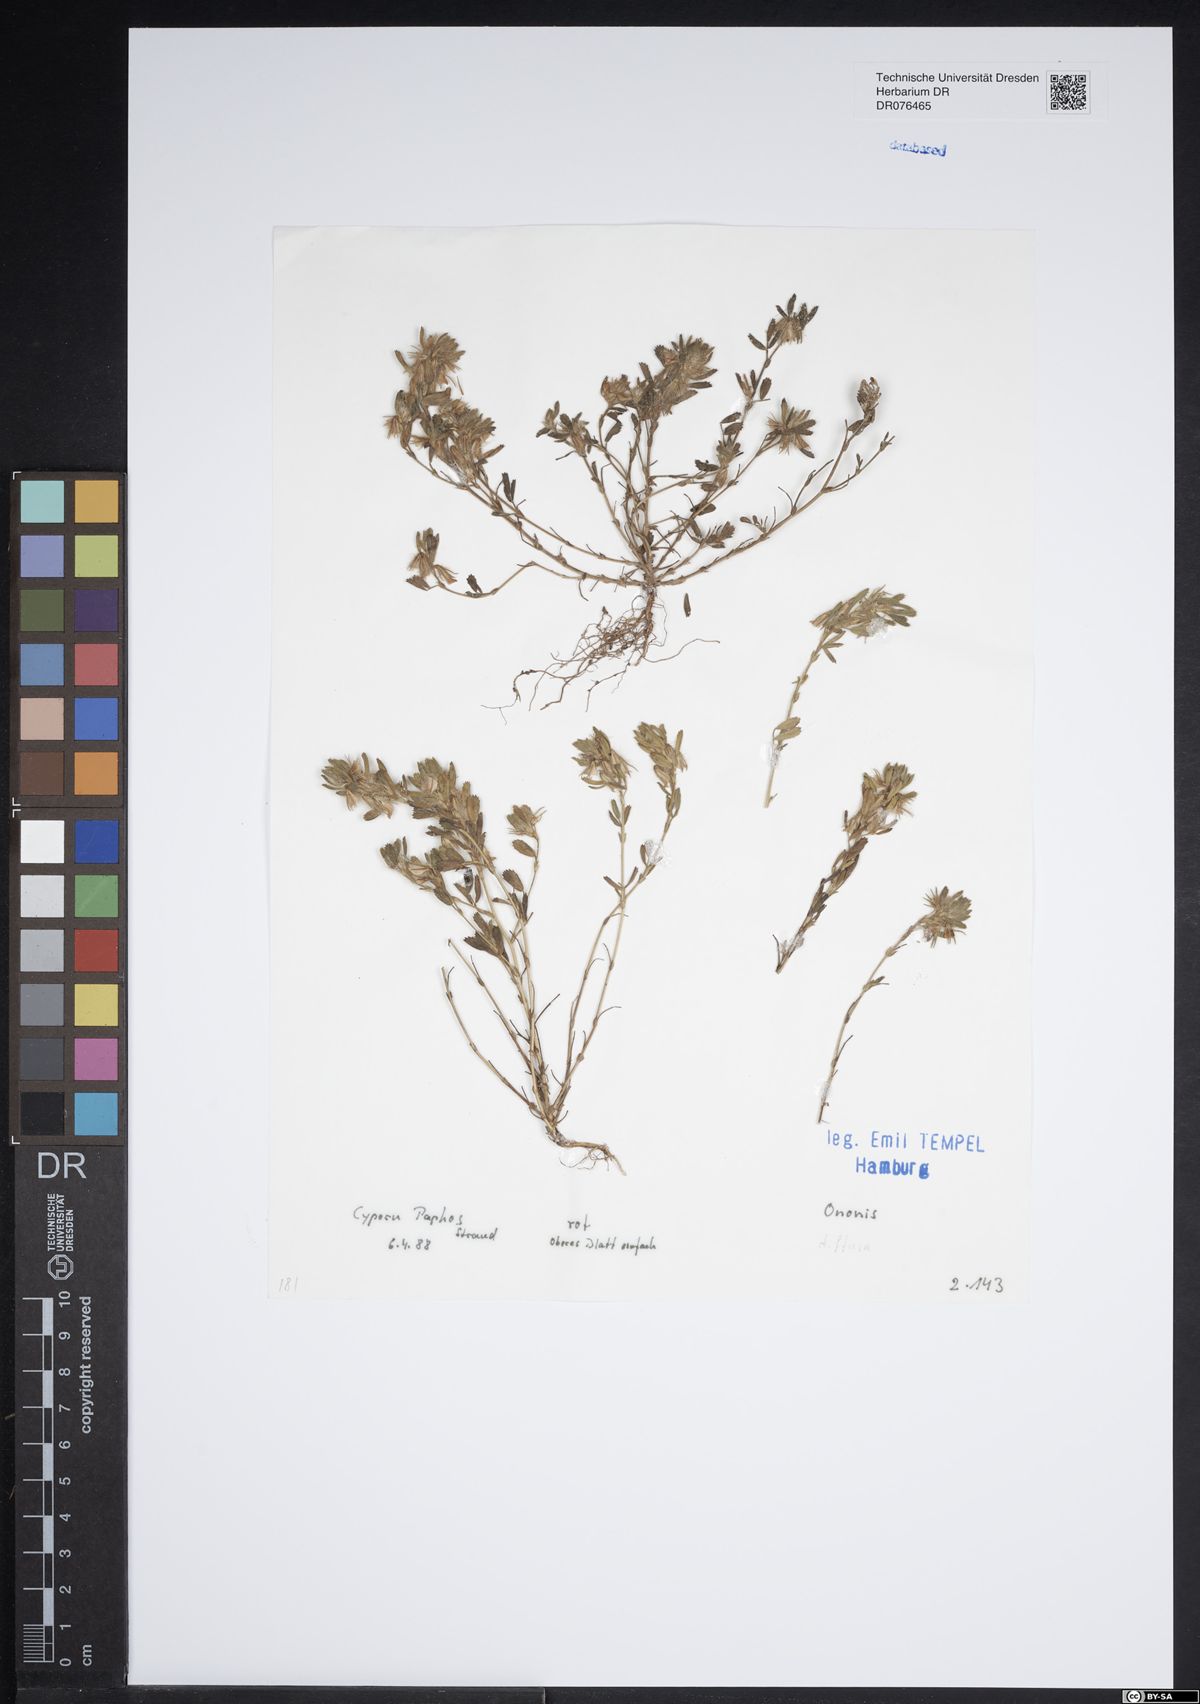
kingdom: Plantae
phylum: Tracheophyta
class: Magnoliopsida
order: Fabales
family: Fabaceae
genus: Ononis
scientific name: Ononis diffusa
